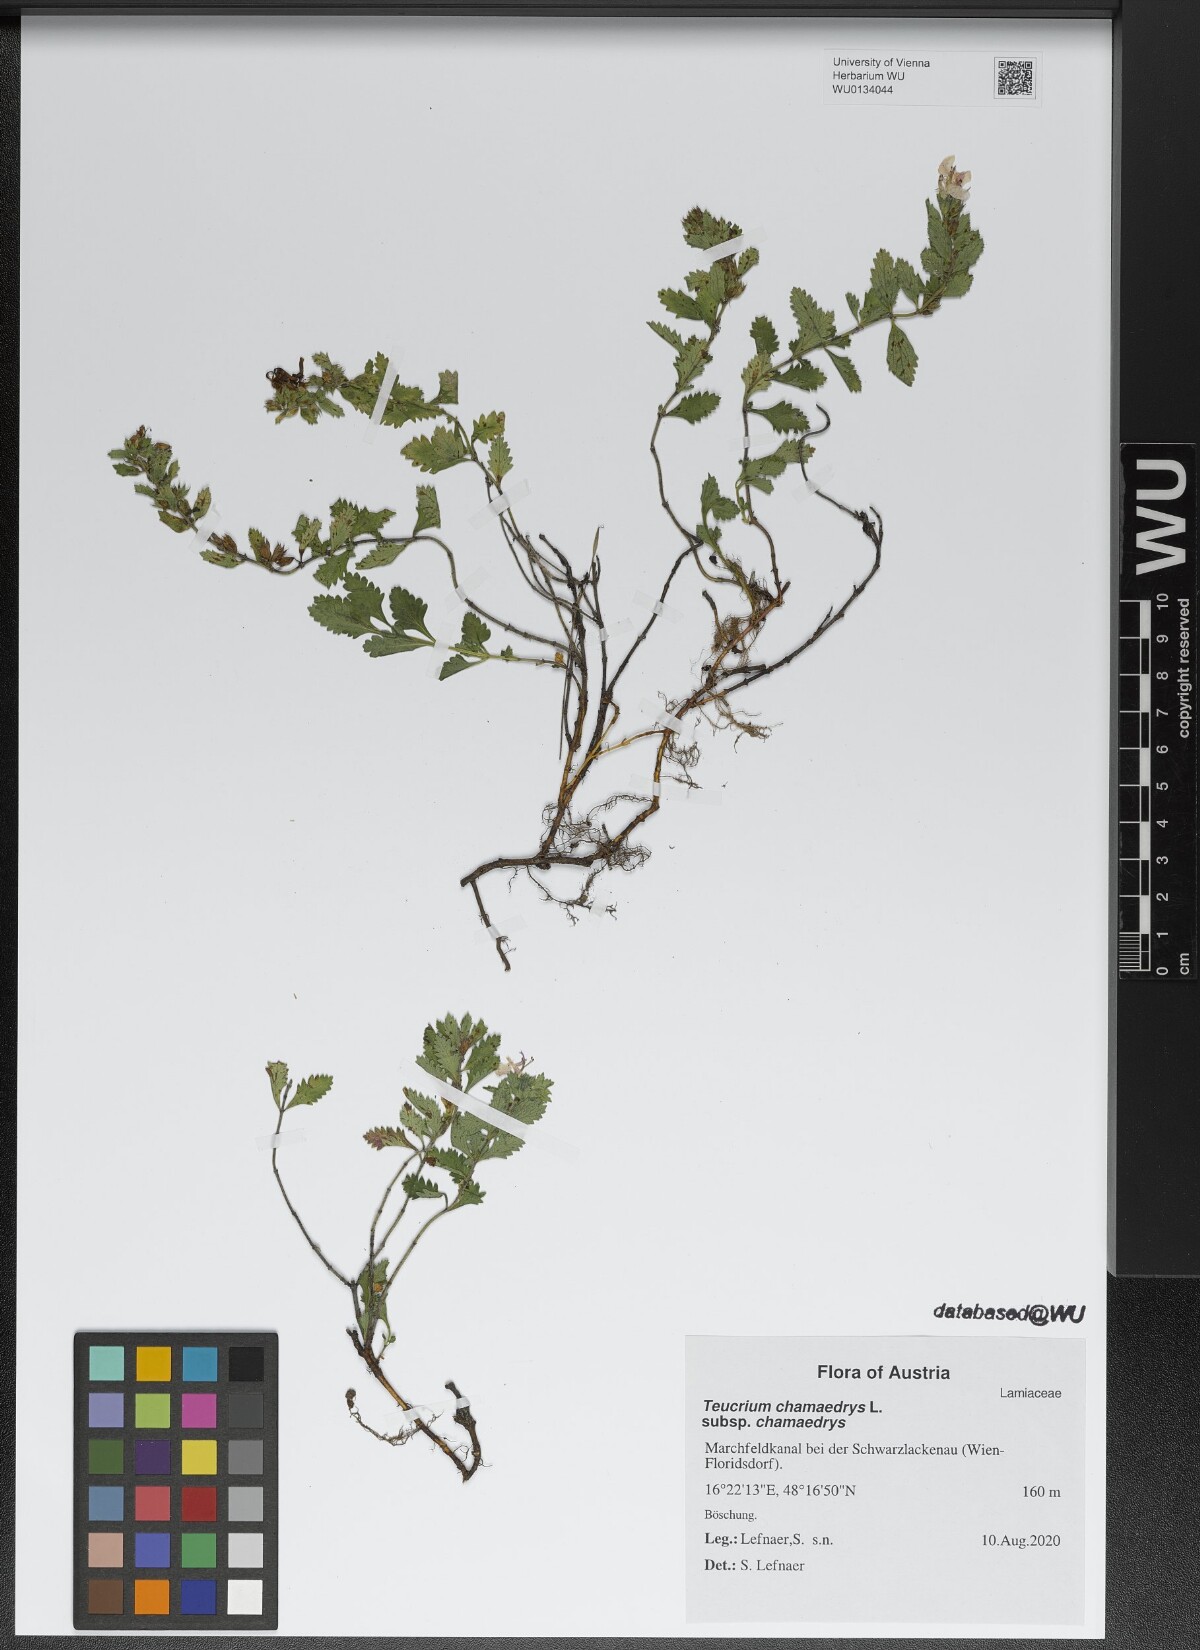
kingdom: Plantae
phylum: Tracheophyta
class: Magnoliopsida
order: Lamiales
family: Lamiaceae
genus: Teucrium
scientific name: Teucrium chamaedrys
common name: Wall germander
